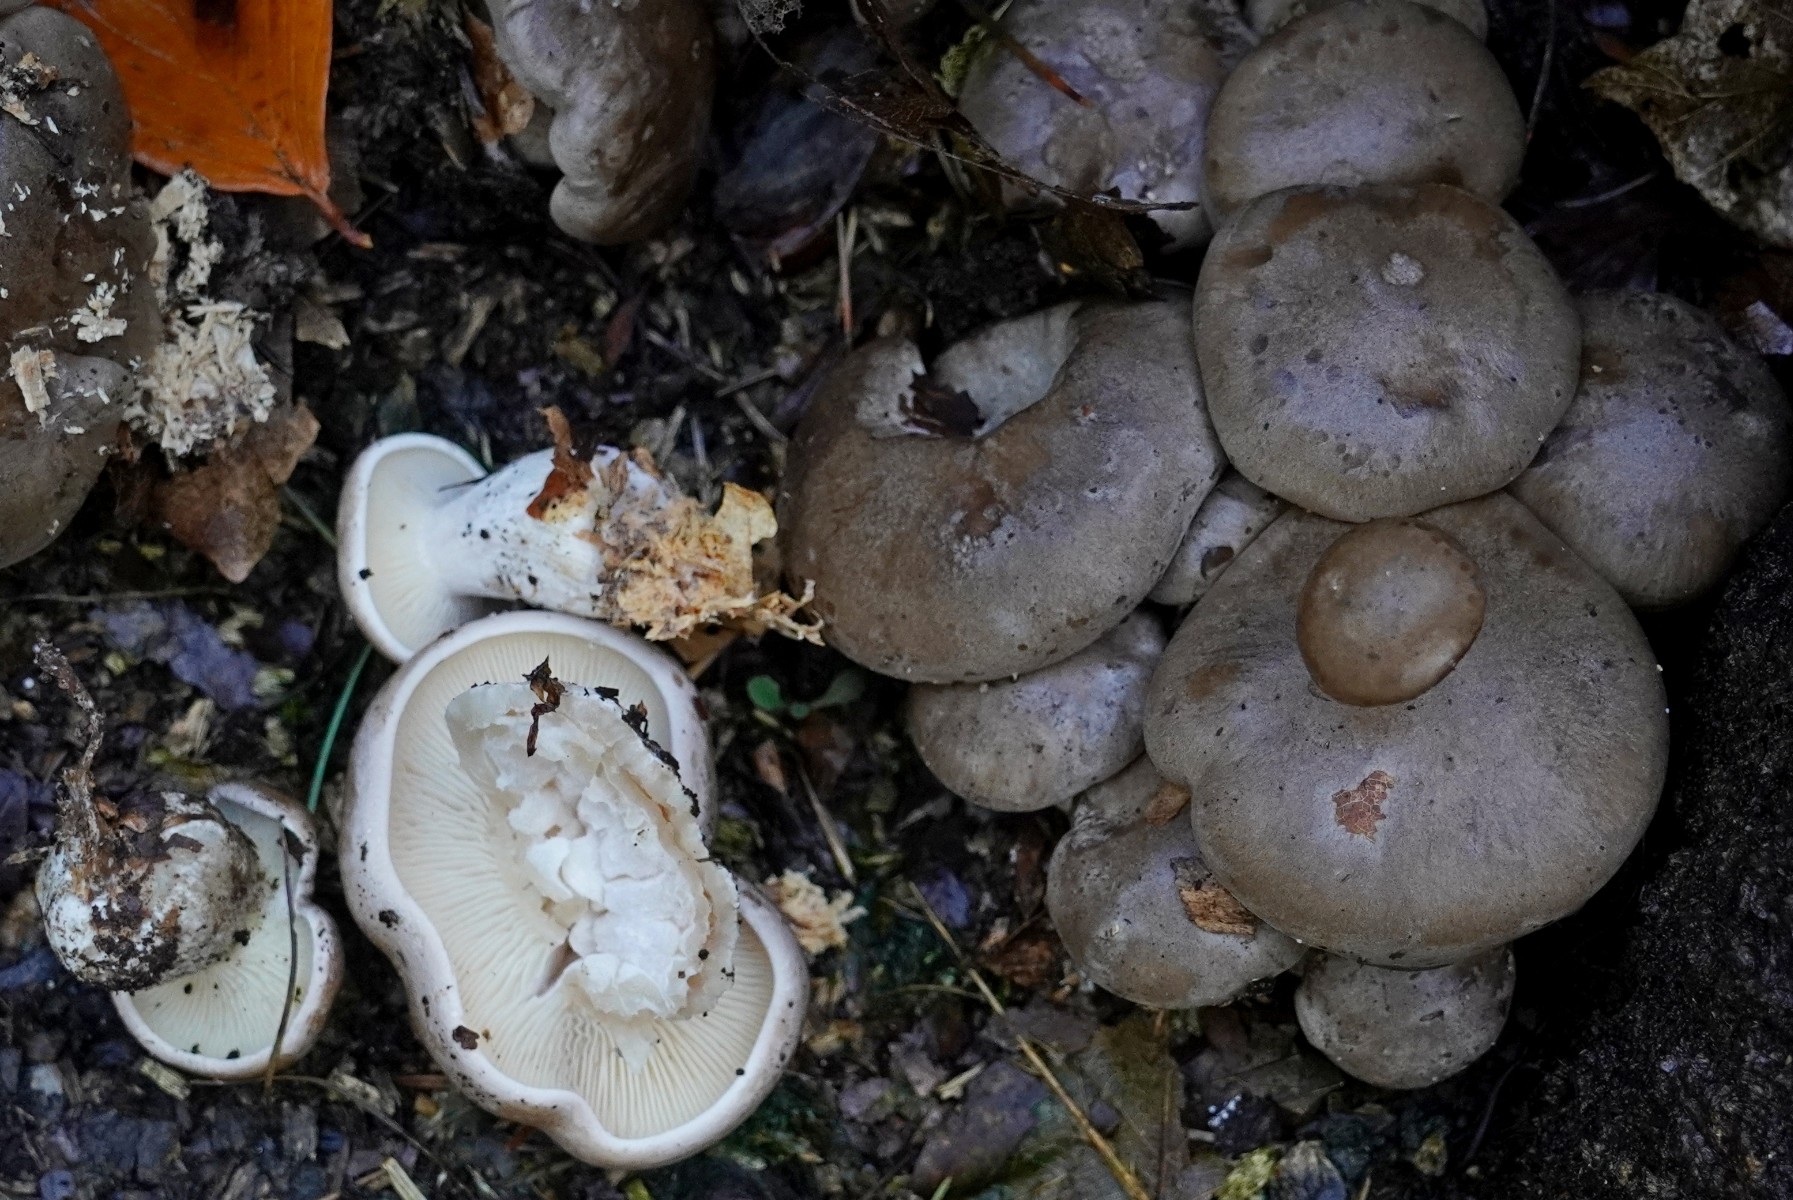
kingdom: Fungi
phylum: Basidiomycota
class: Agaricomycetes
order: Agaricales
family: Tricholomataceae
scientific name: Tricholomataceae
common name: ridderhatfamilien
